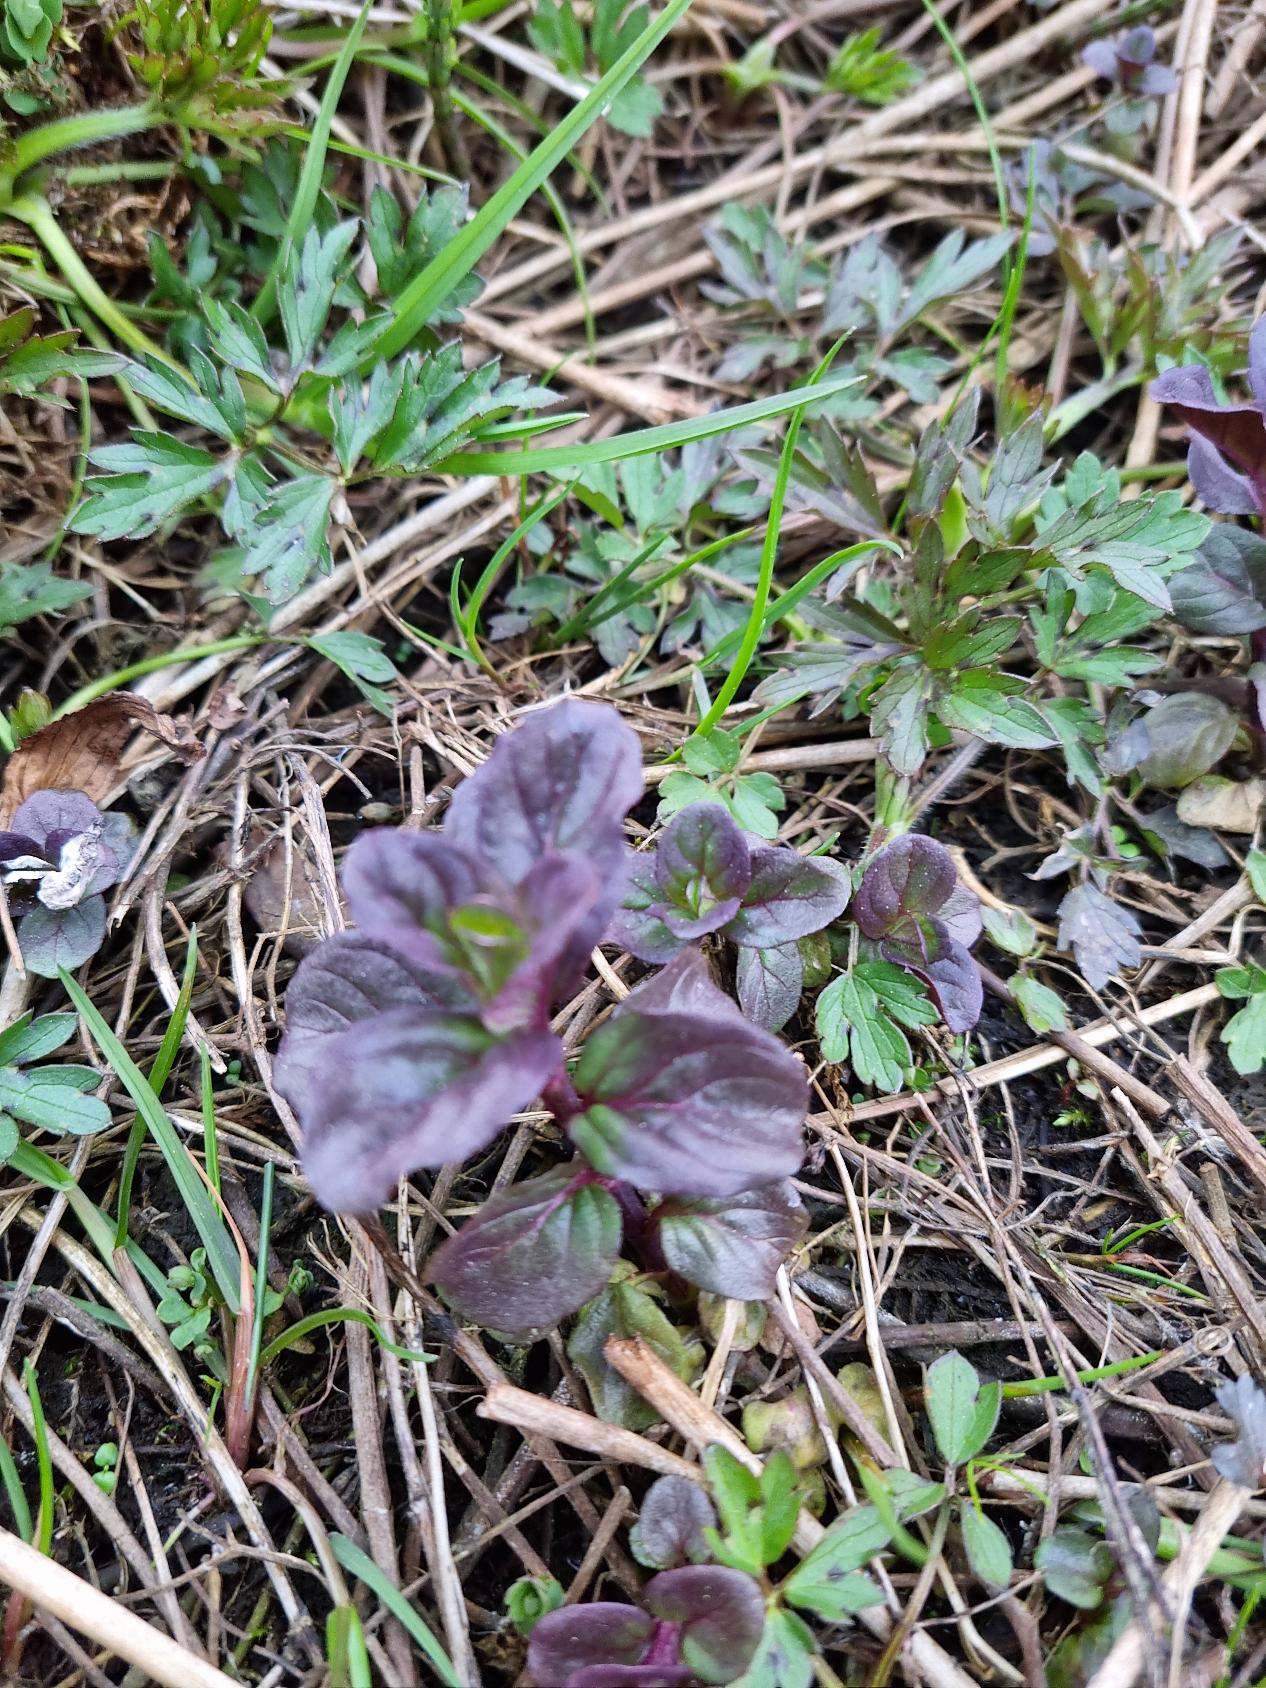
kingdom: Plantae
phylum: Tracheophyta
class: Magnoliopsida
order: Lamiales
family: Lamiaceae
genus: Mentha
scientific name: Mentha aquatica
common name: Vand-mynte
